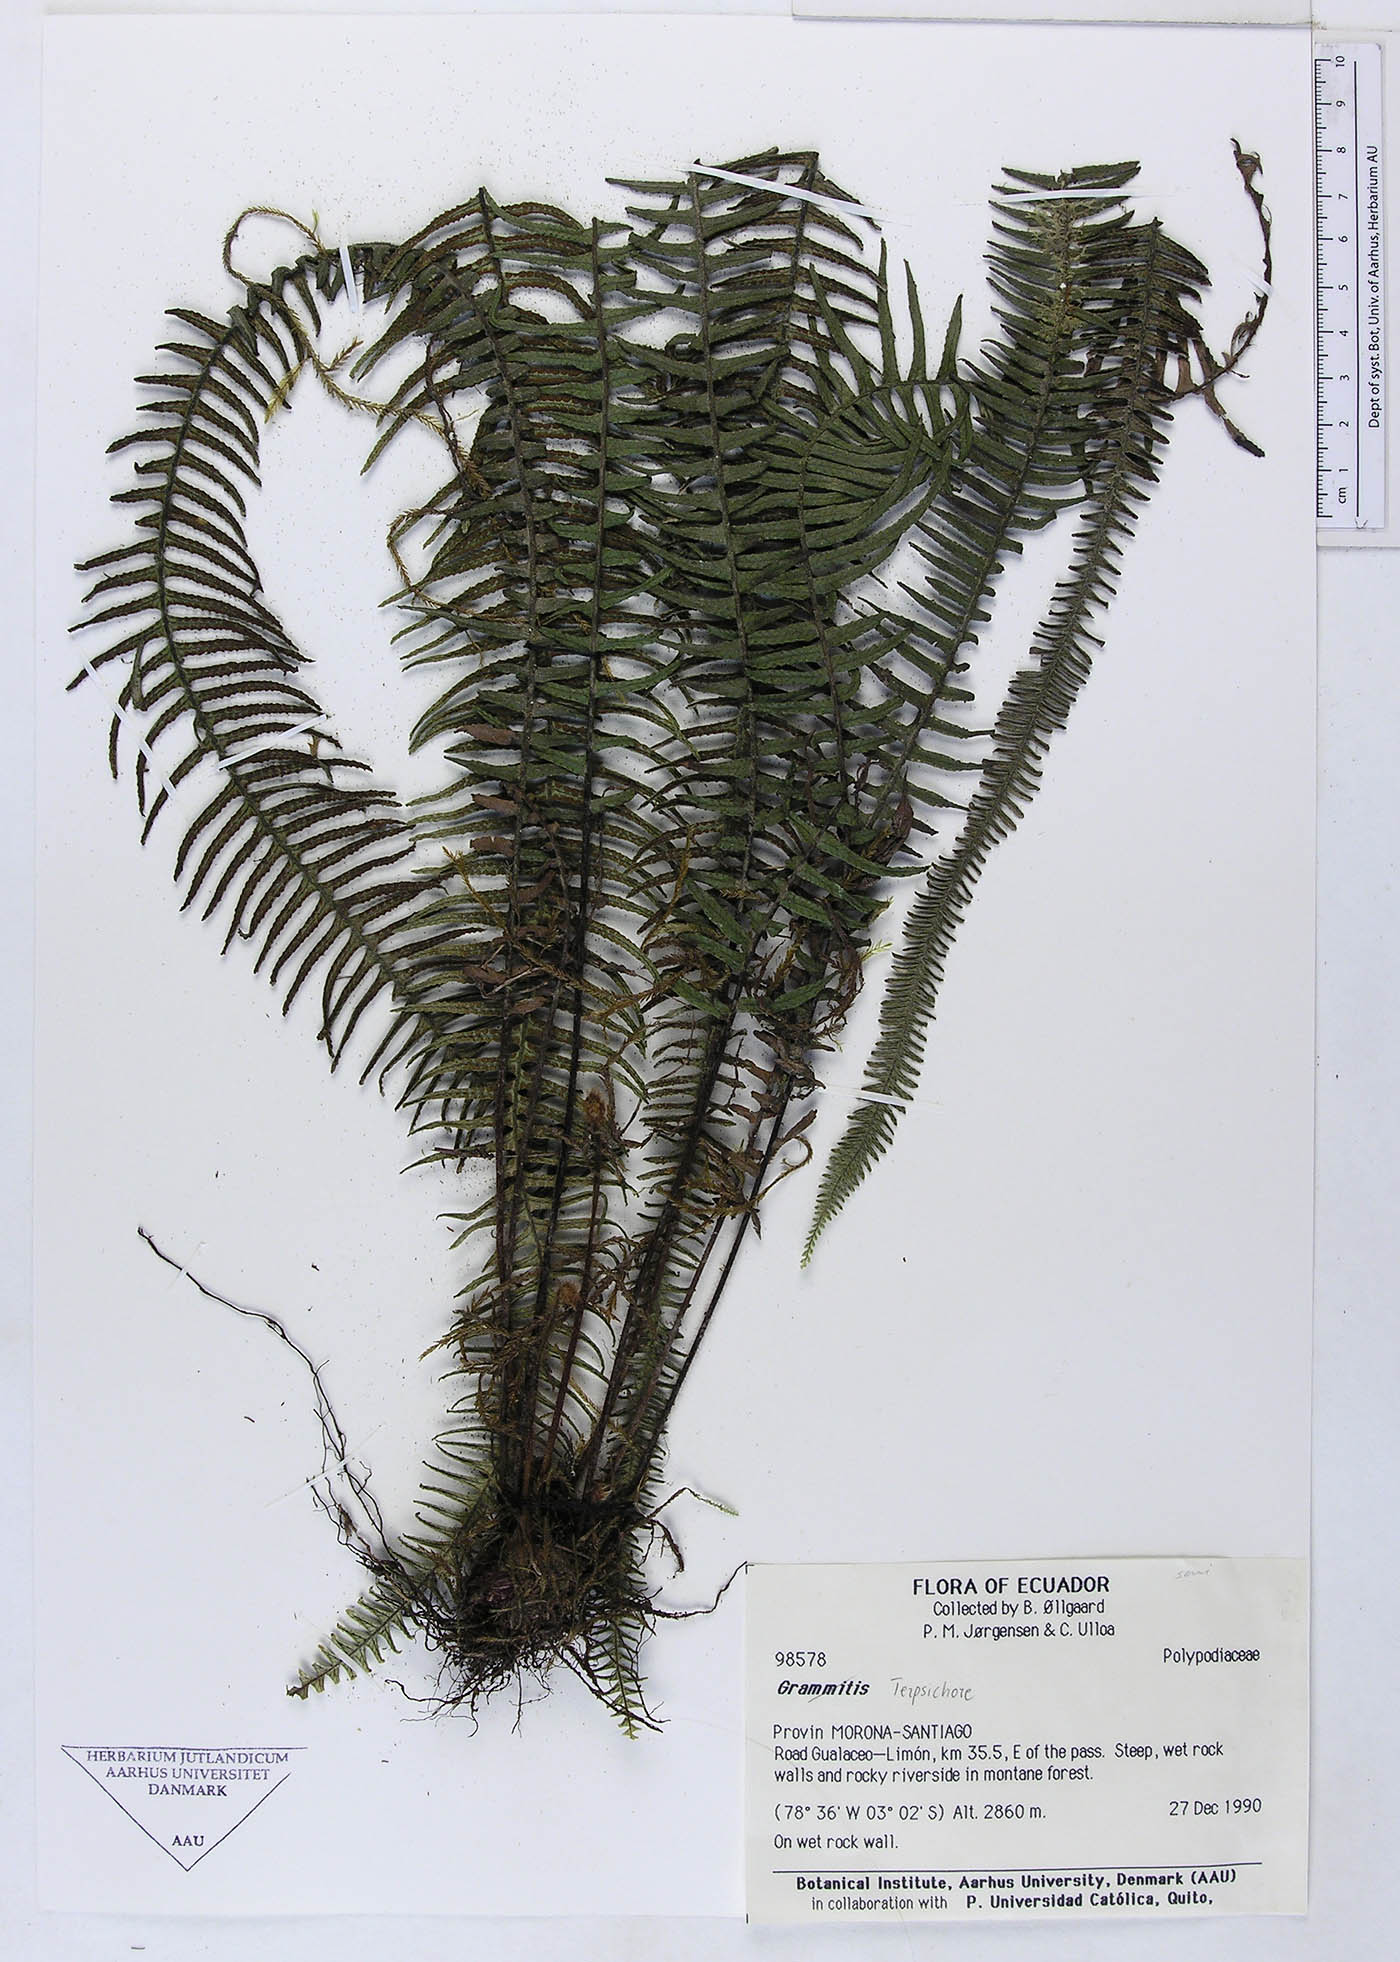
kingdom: Plantae
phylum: Tracheophyta
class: Polypodiopsida
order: Polypodiales
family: Polypodiaceae
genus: Grammitis
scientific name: Grammitis
